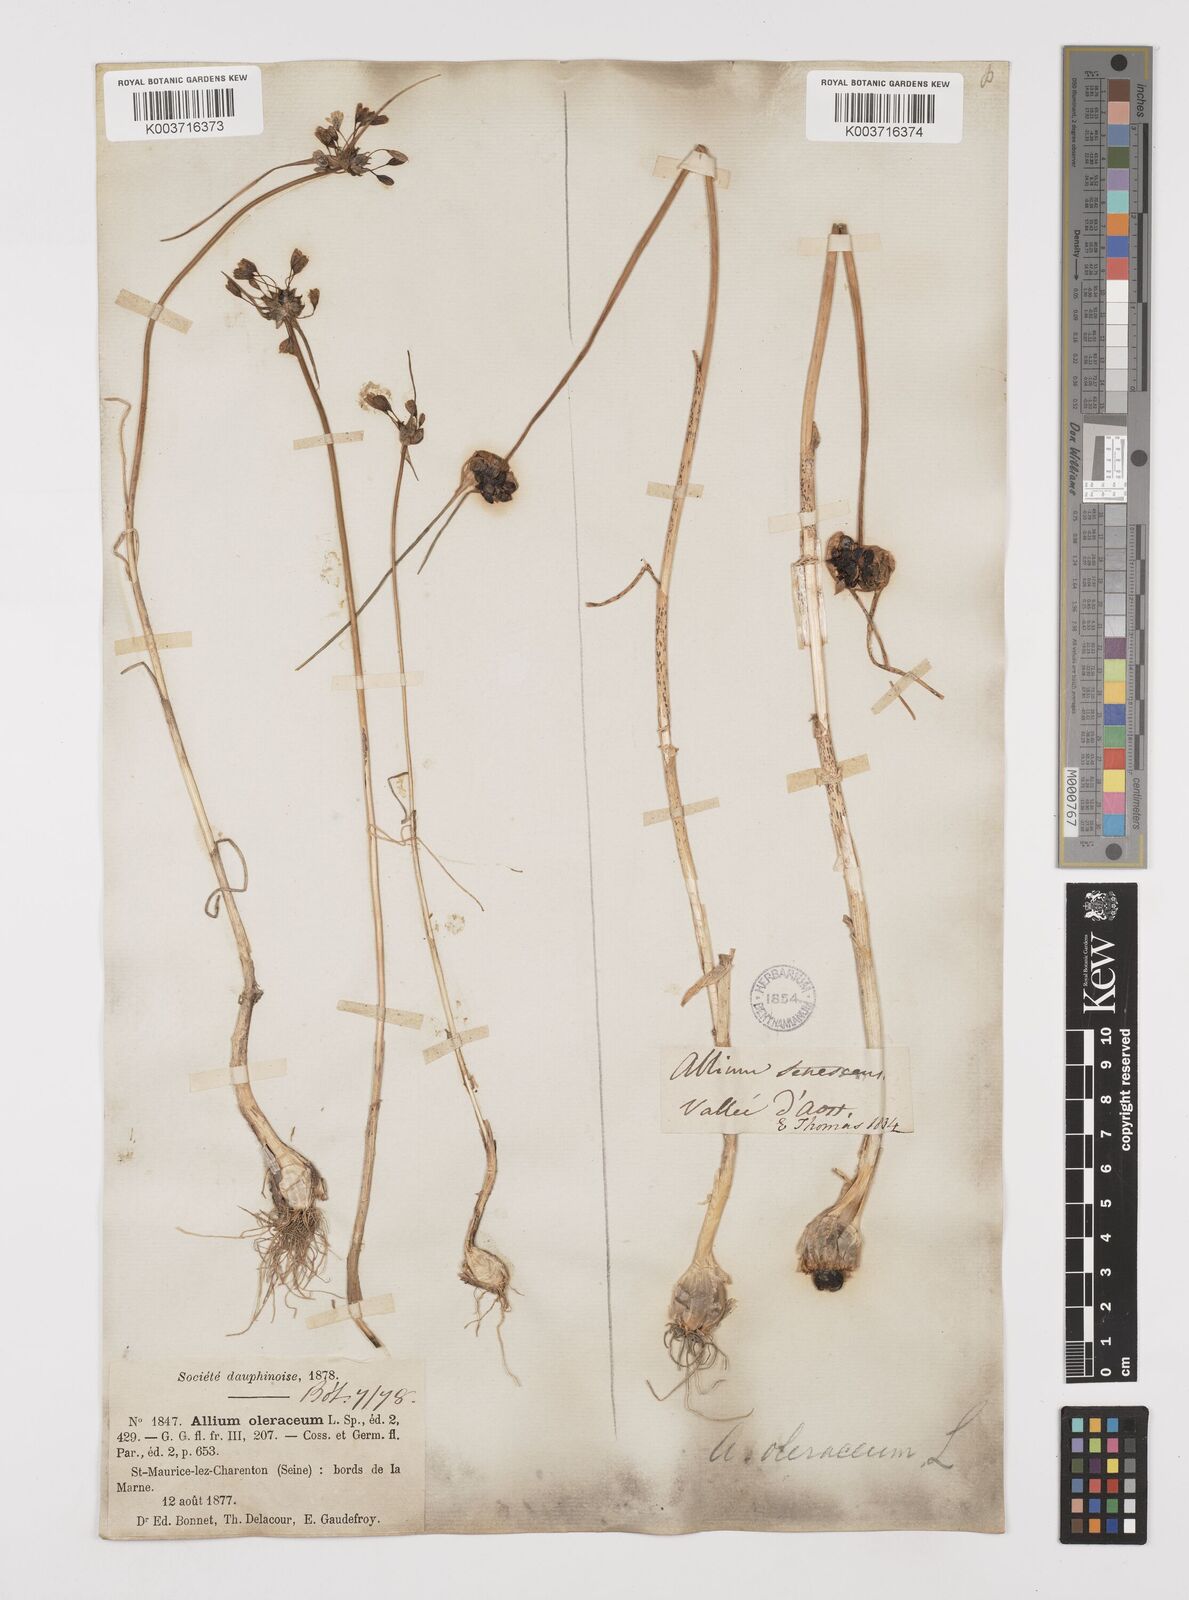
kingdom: Plantae
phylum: Tracheophyta
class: Liliopsida
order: Asparagales
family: Amaryllidaceae
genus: Allium
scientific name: Allium oleraceum
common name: Field garlic
